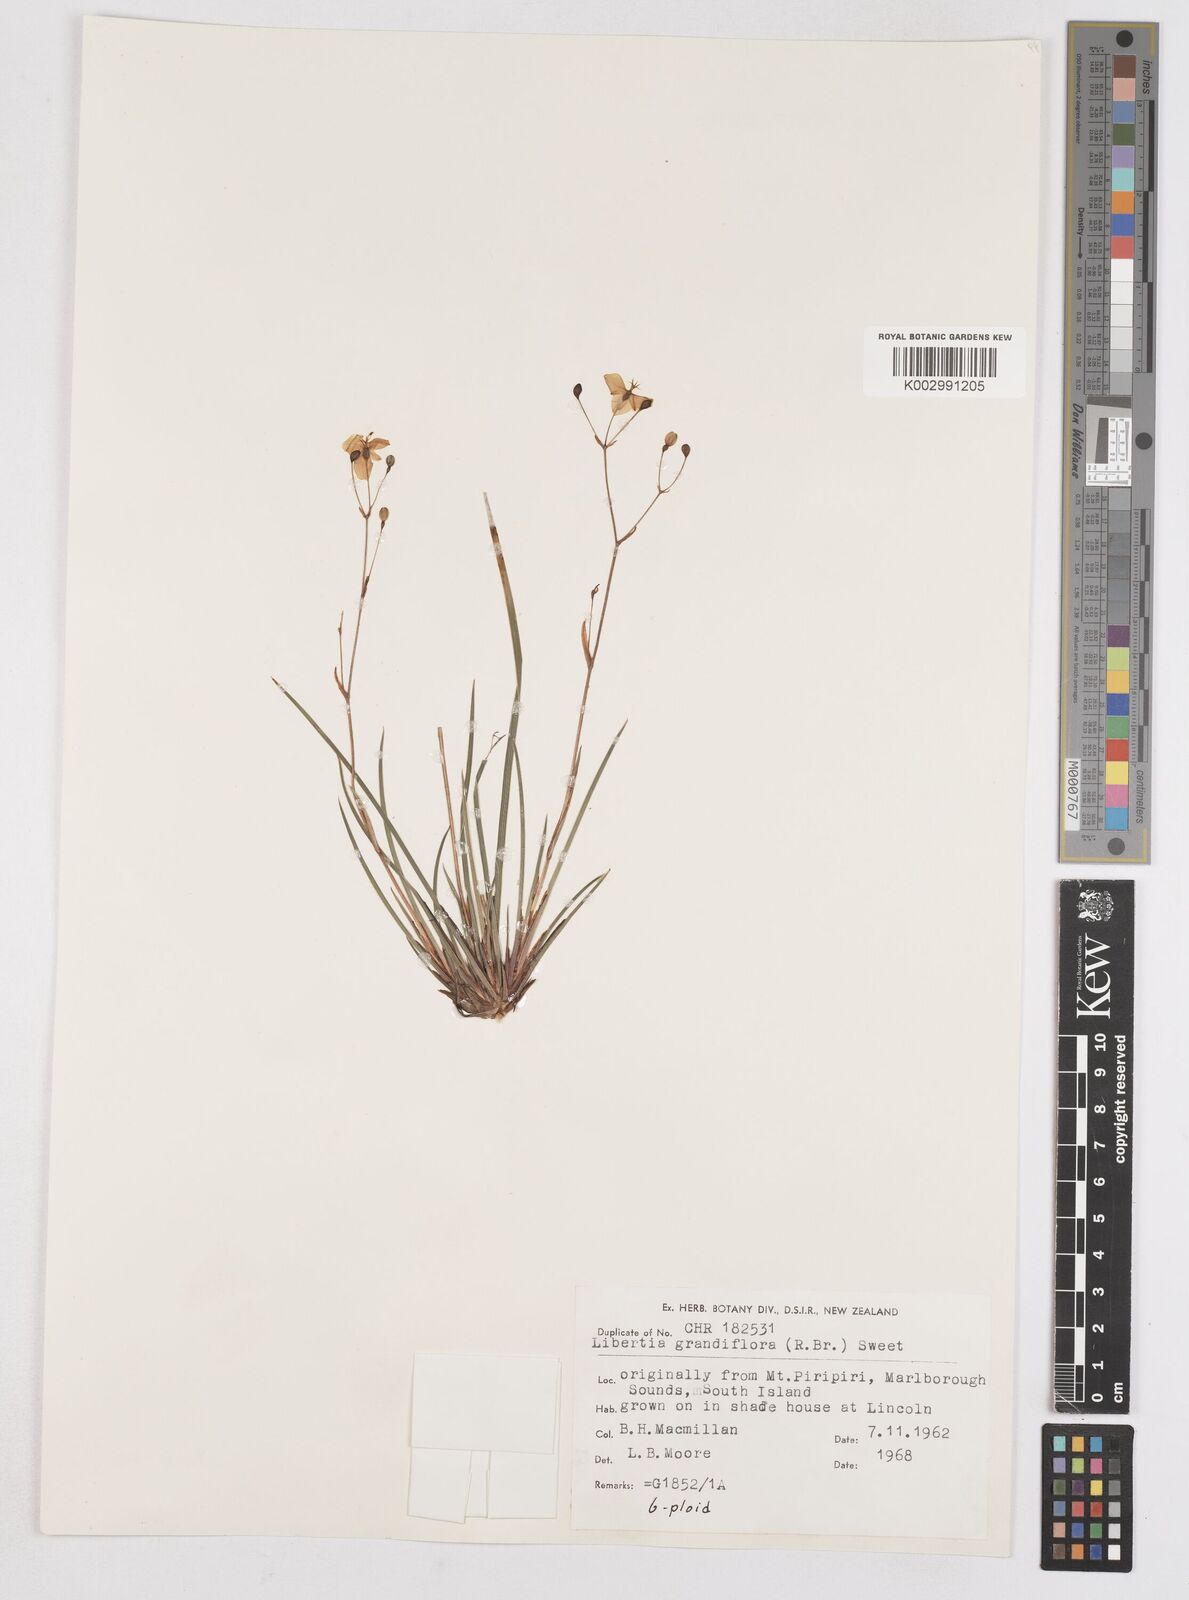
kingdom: Plantae
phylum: Tracheophyta
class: Liliopsida
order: Asparagales
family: Iridaceae
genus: Libertia
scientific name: Libertia grandiflora
